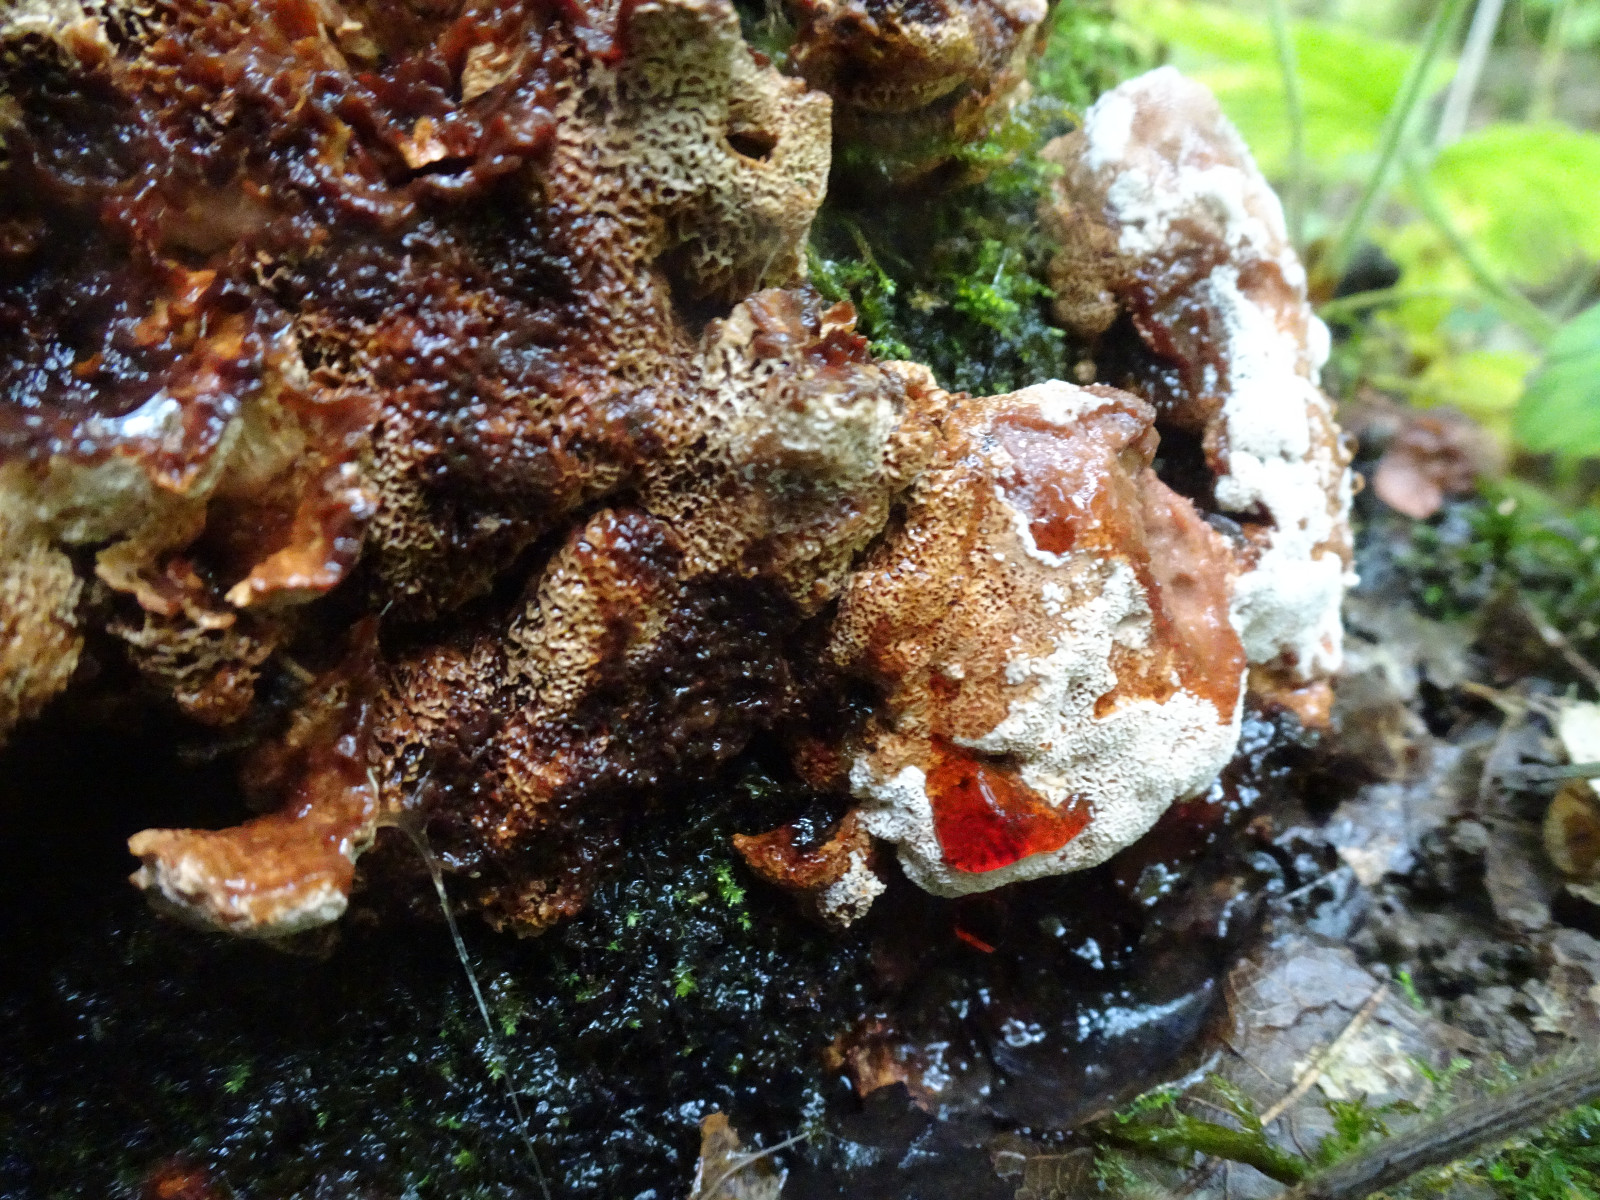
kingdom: Fungi
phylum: Basidiomycota
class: Agaricomycetes
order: Polyporales
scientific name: Polyporales
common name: poresvampordenen
